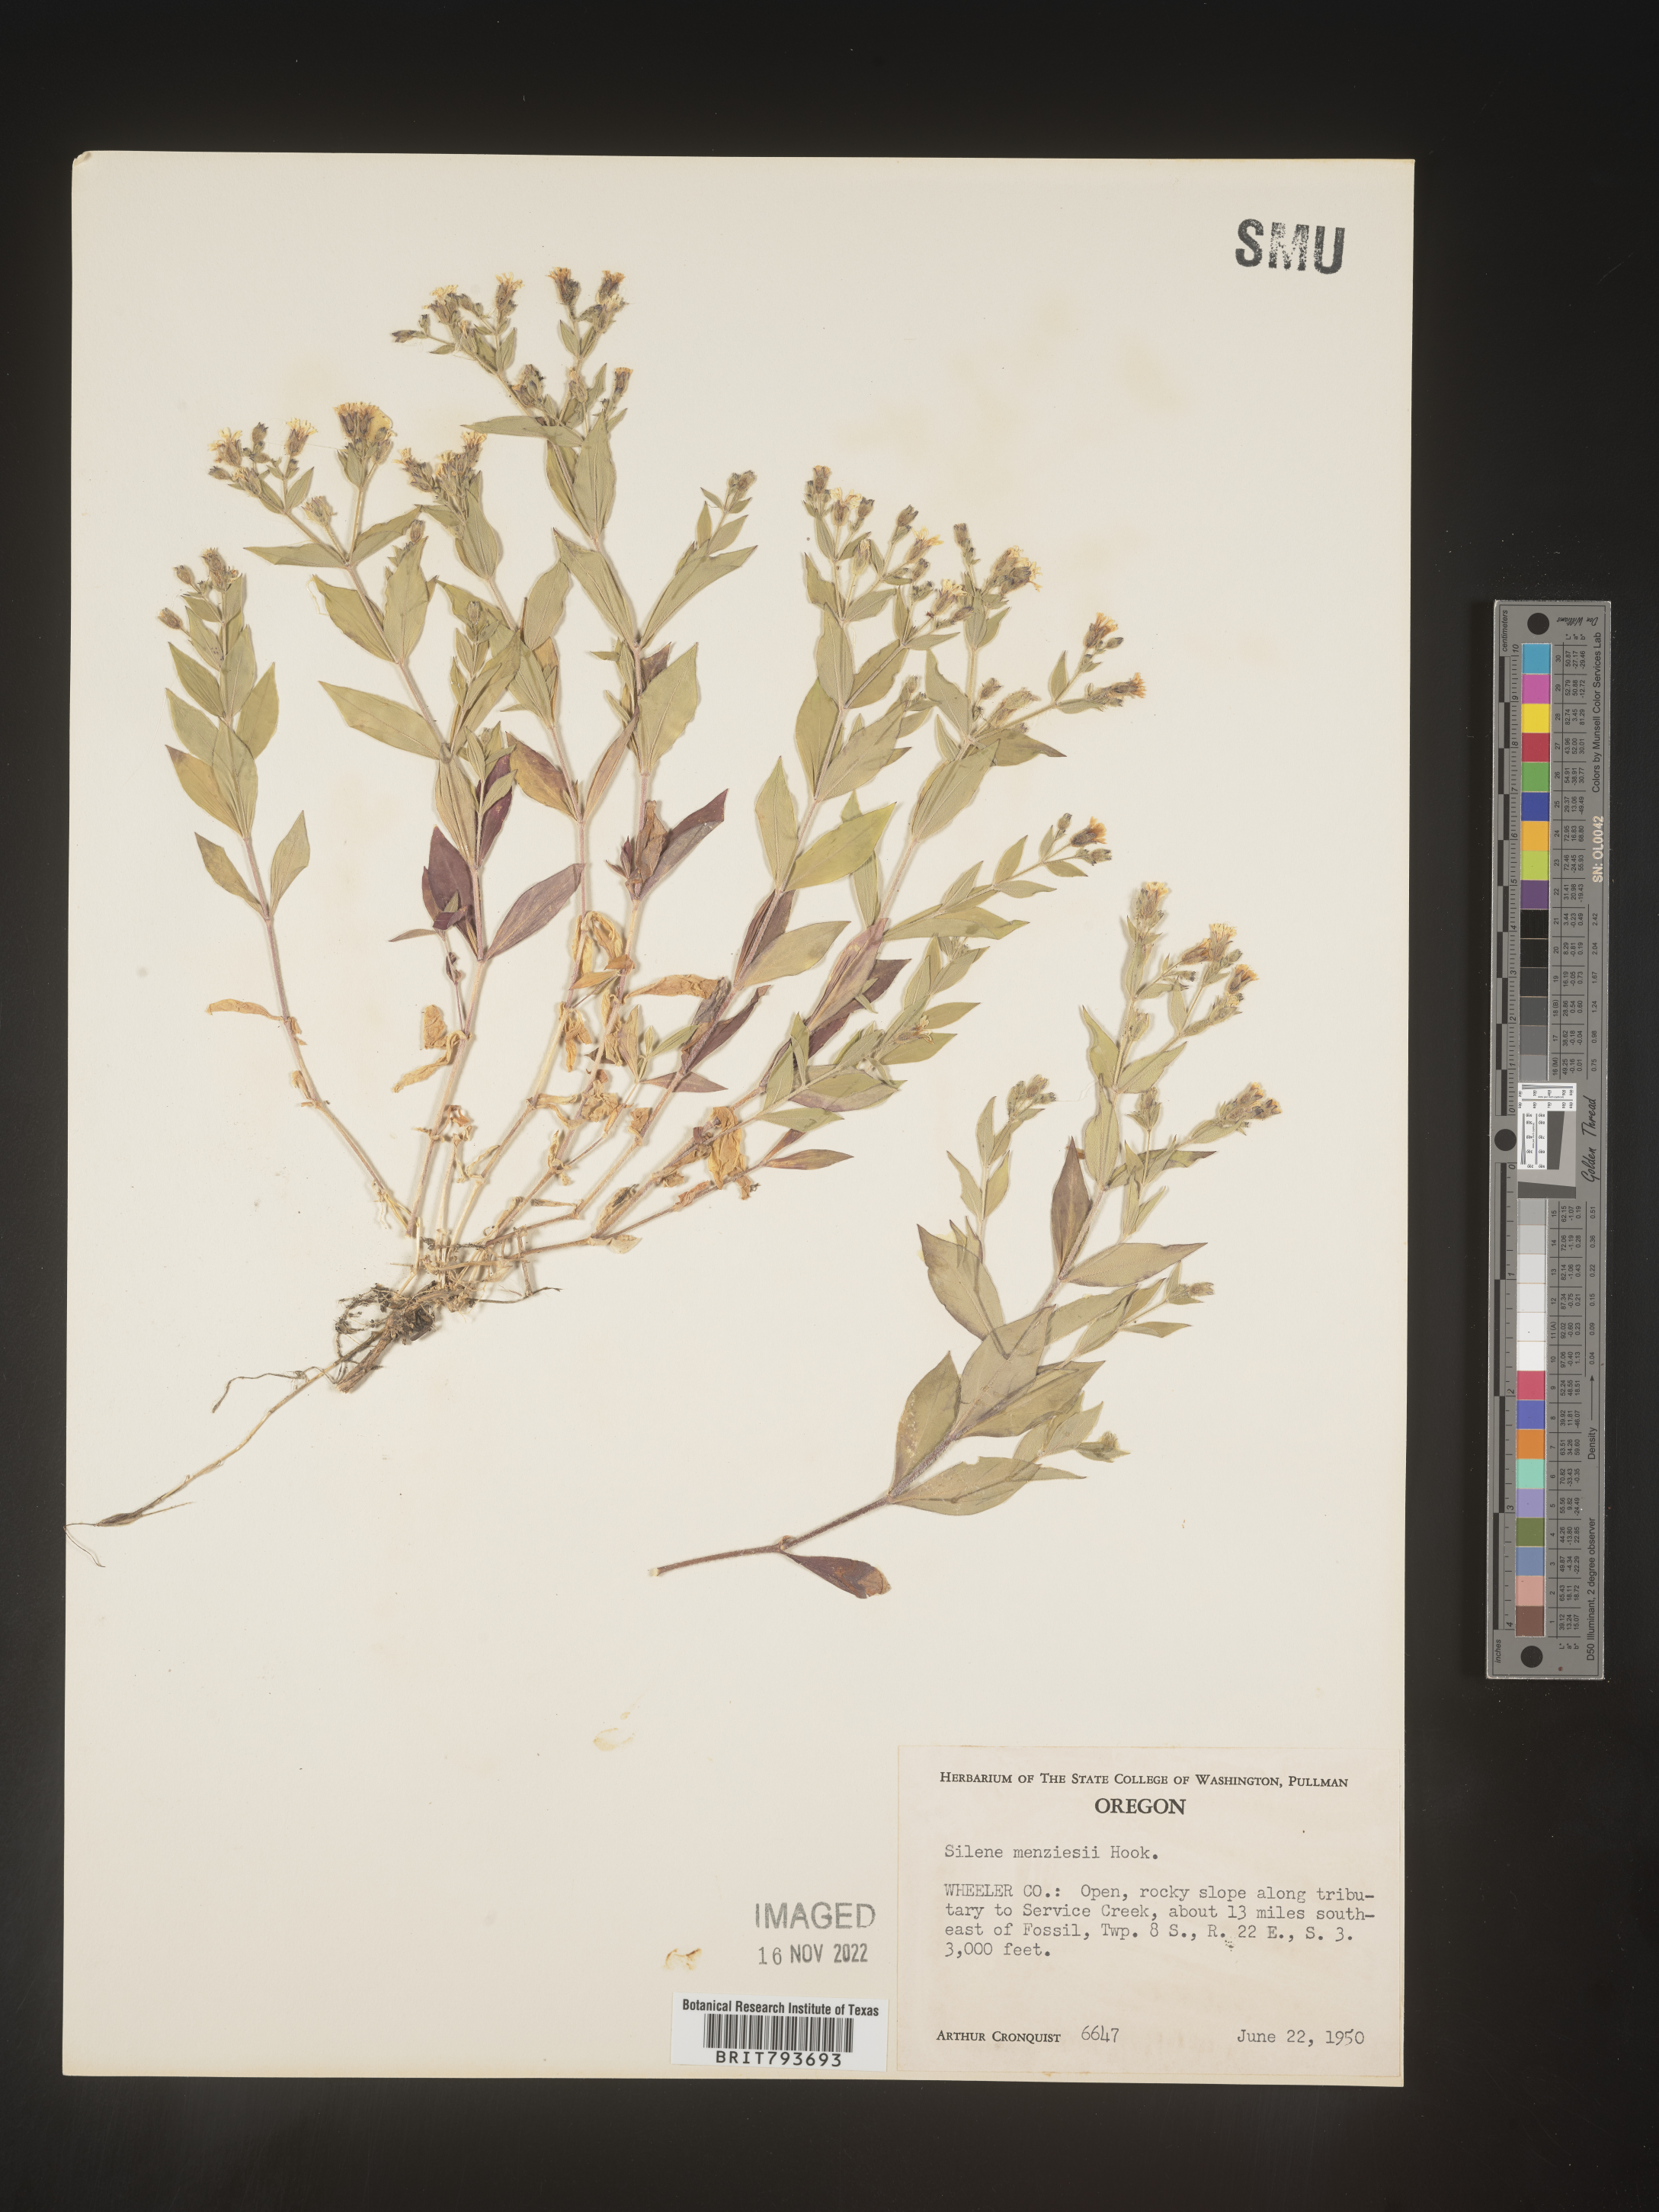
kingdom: Plantae
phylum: Tracheophyta
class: Magnoliopsida
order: Caryophyllales
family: Caryophyllaceae
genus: Silene
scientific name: Silene menziesii
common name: Menzies's catchfly
